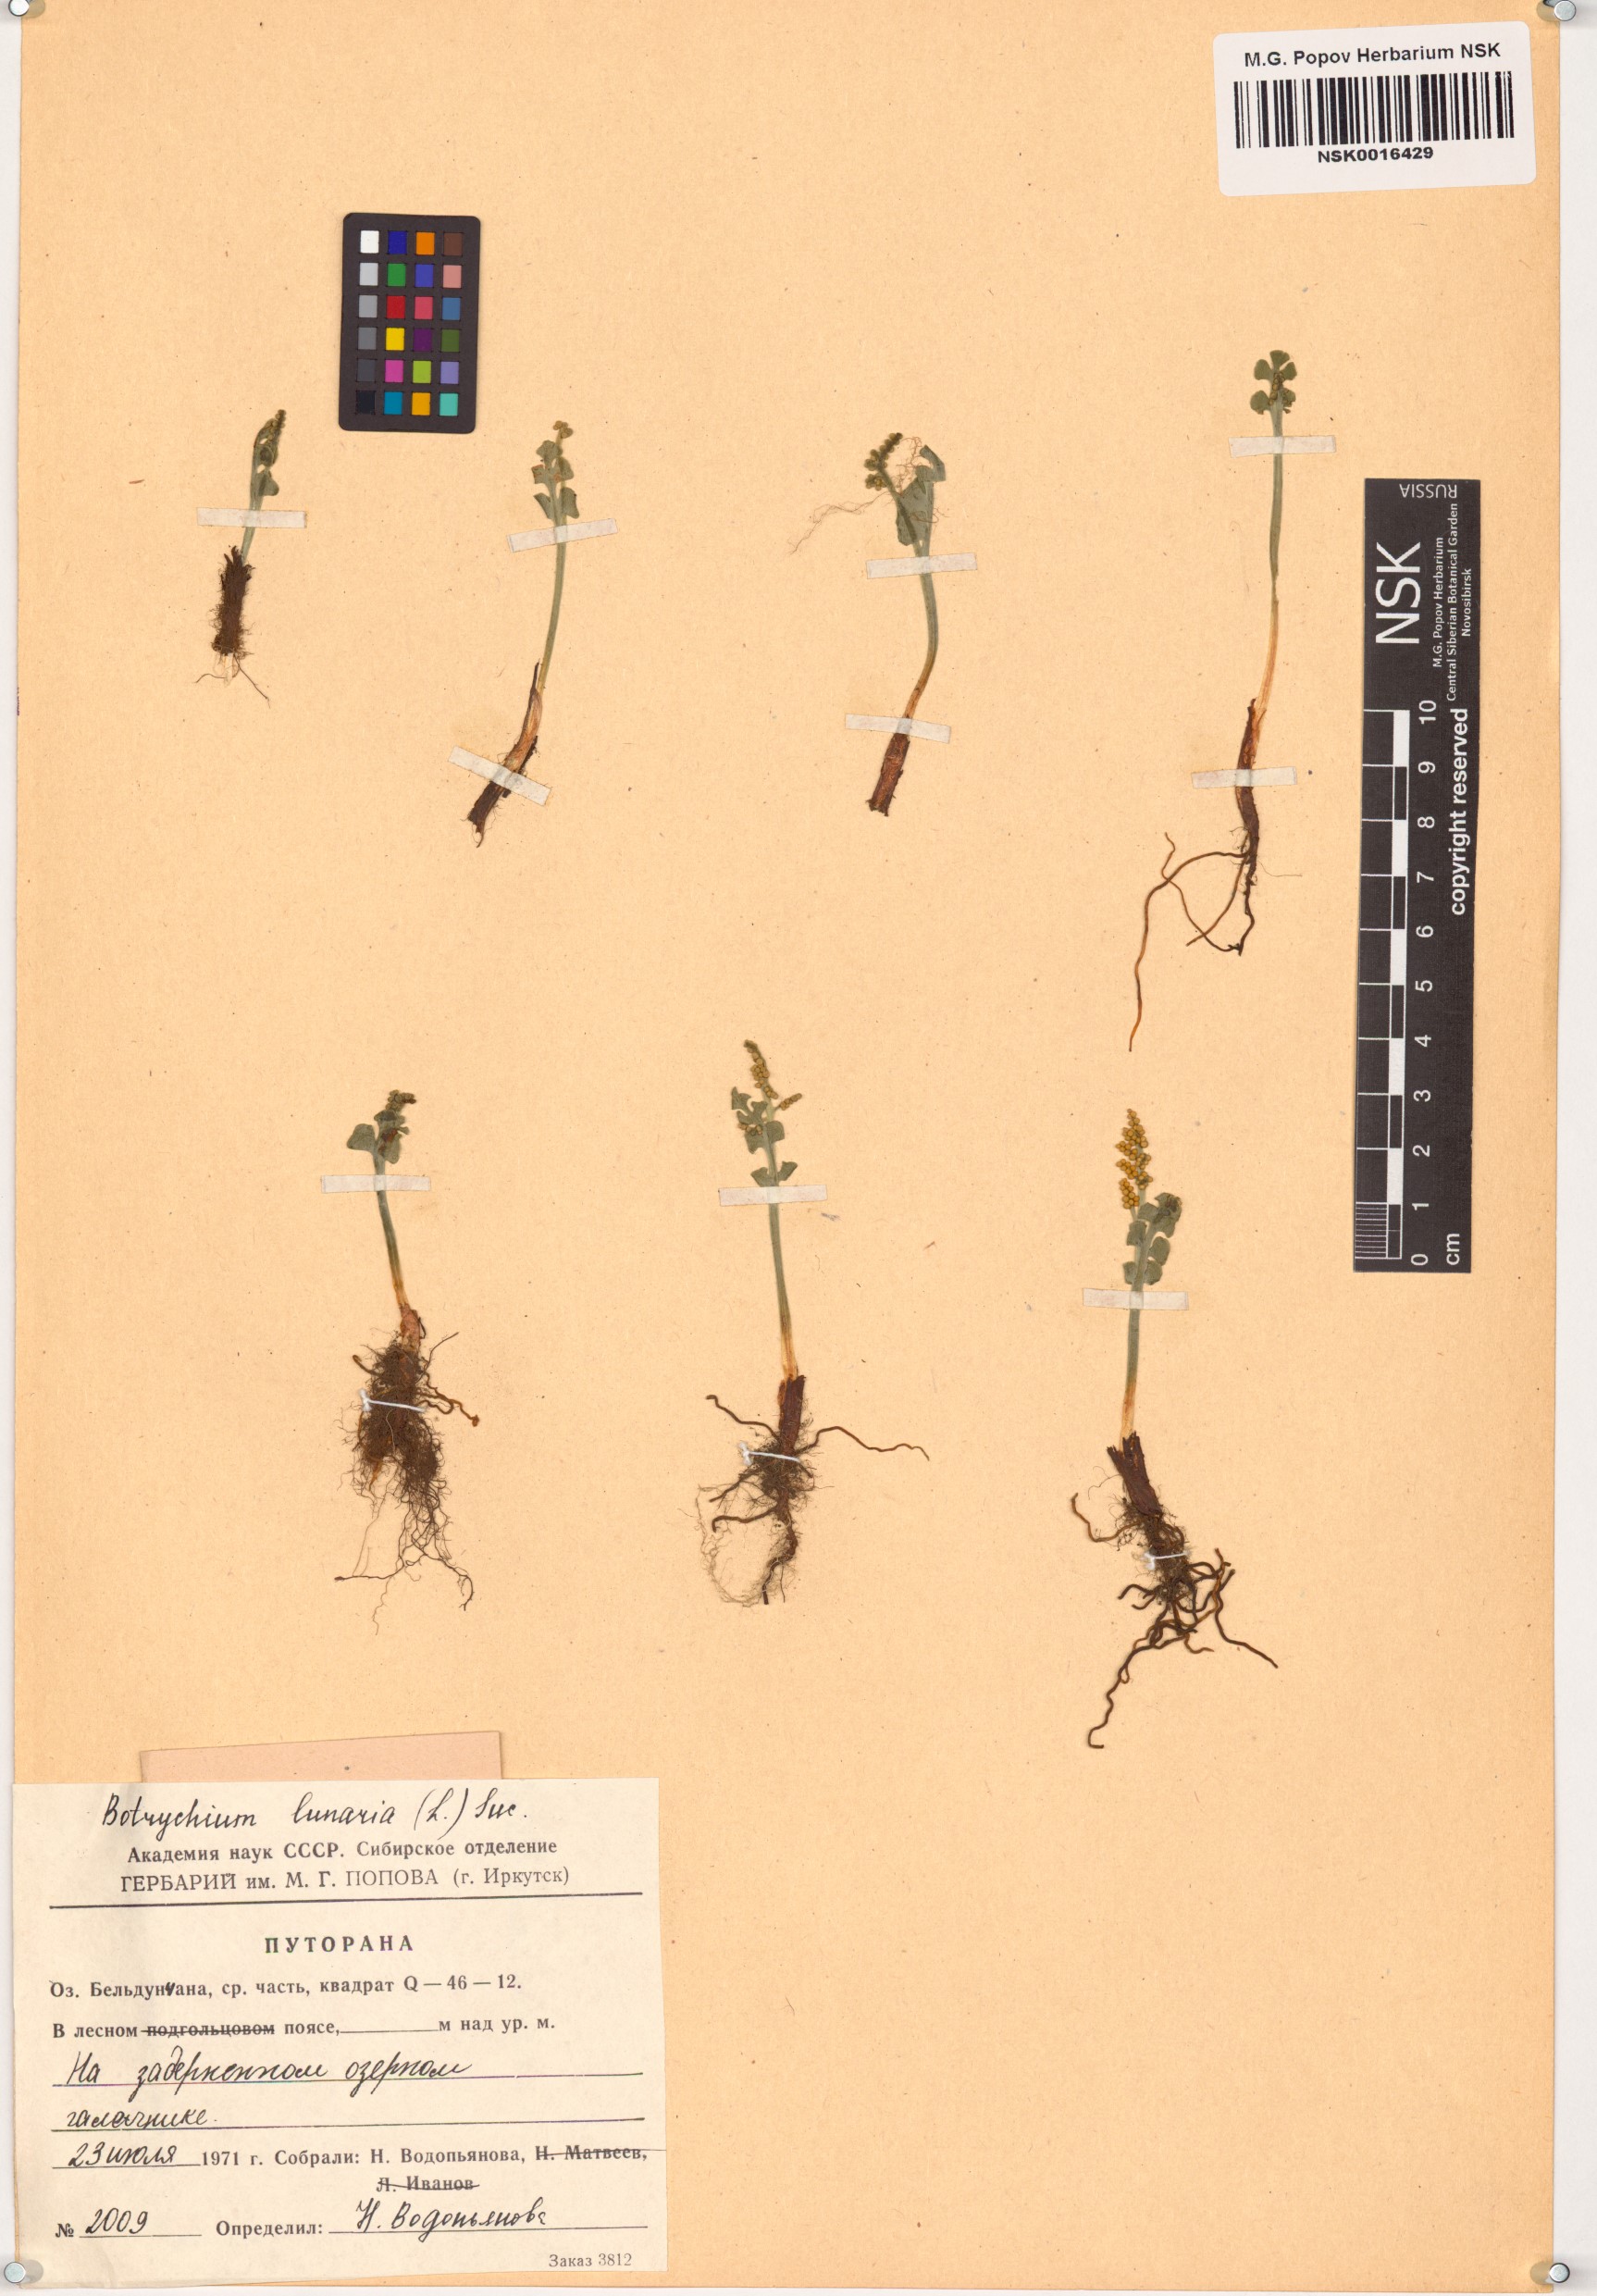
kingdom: Plantae
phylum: Tracheophyta
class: Polypodiopsida
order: Ophioglossales
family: Ophioglossaceae
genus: Botrychium
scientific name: Botrychium lunaria
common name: Moonwort
